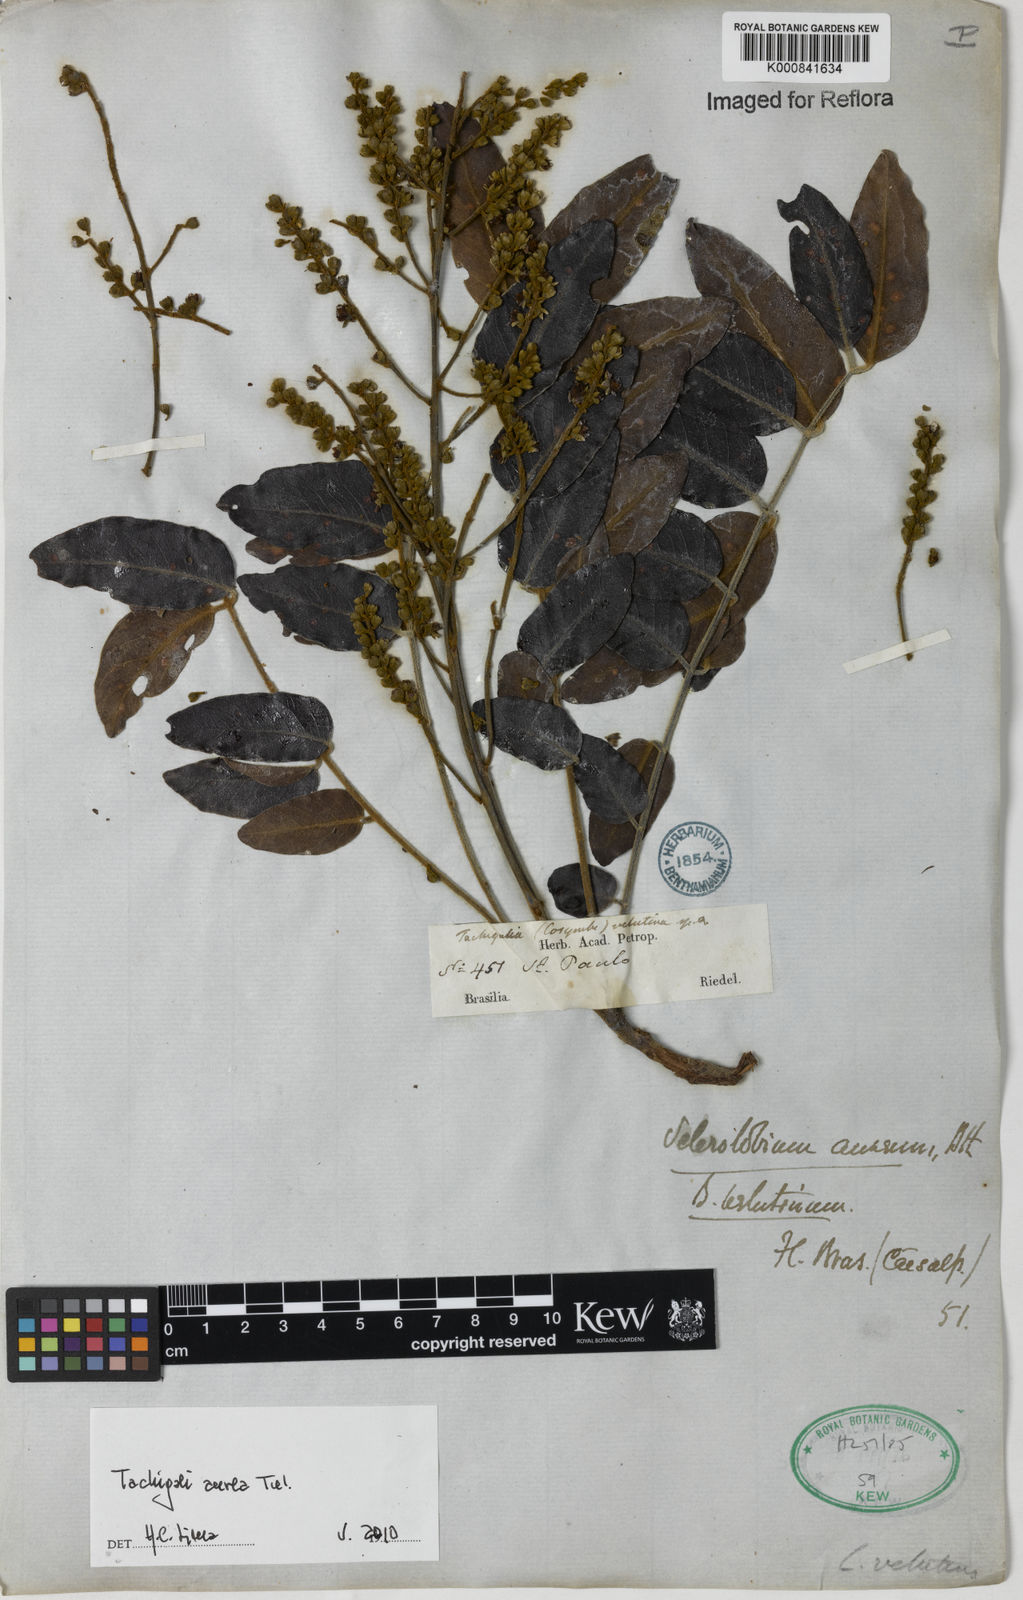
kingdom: Plantae
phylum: Tracheophyta
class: Magnoliopsida
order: Fabales
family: Fabaceae
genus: Tachigali
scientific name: Tachigali aurea
